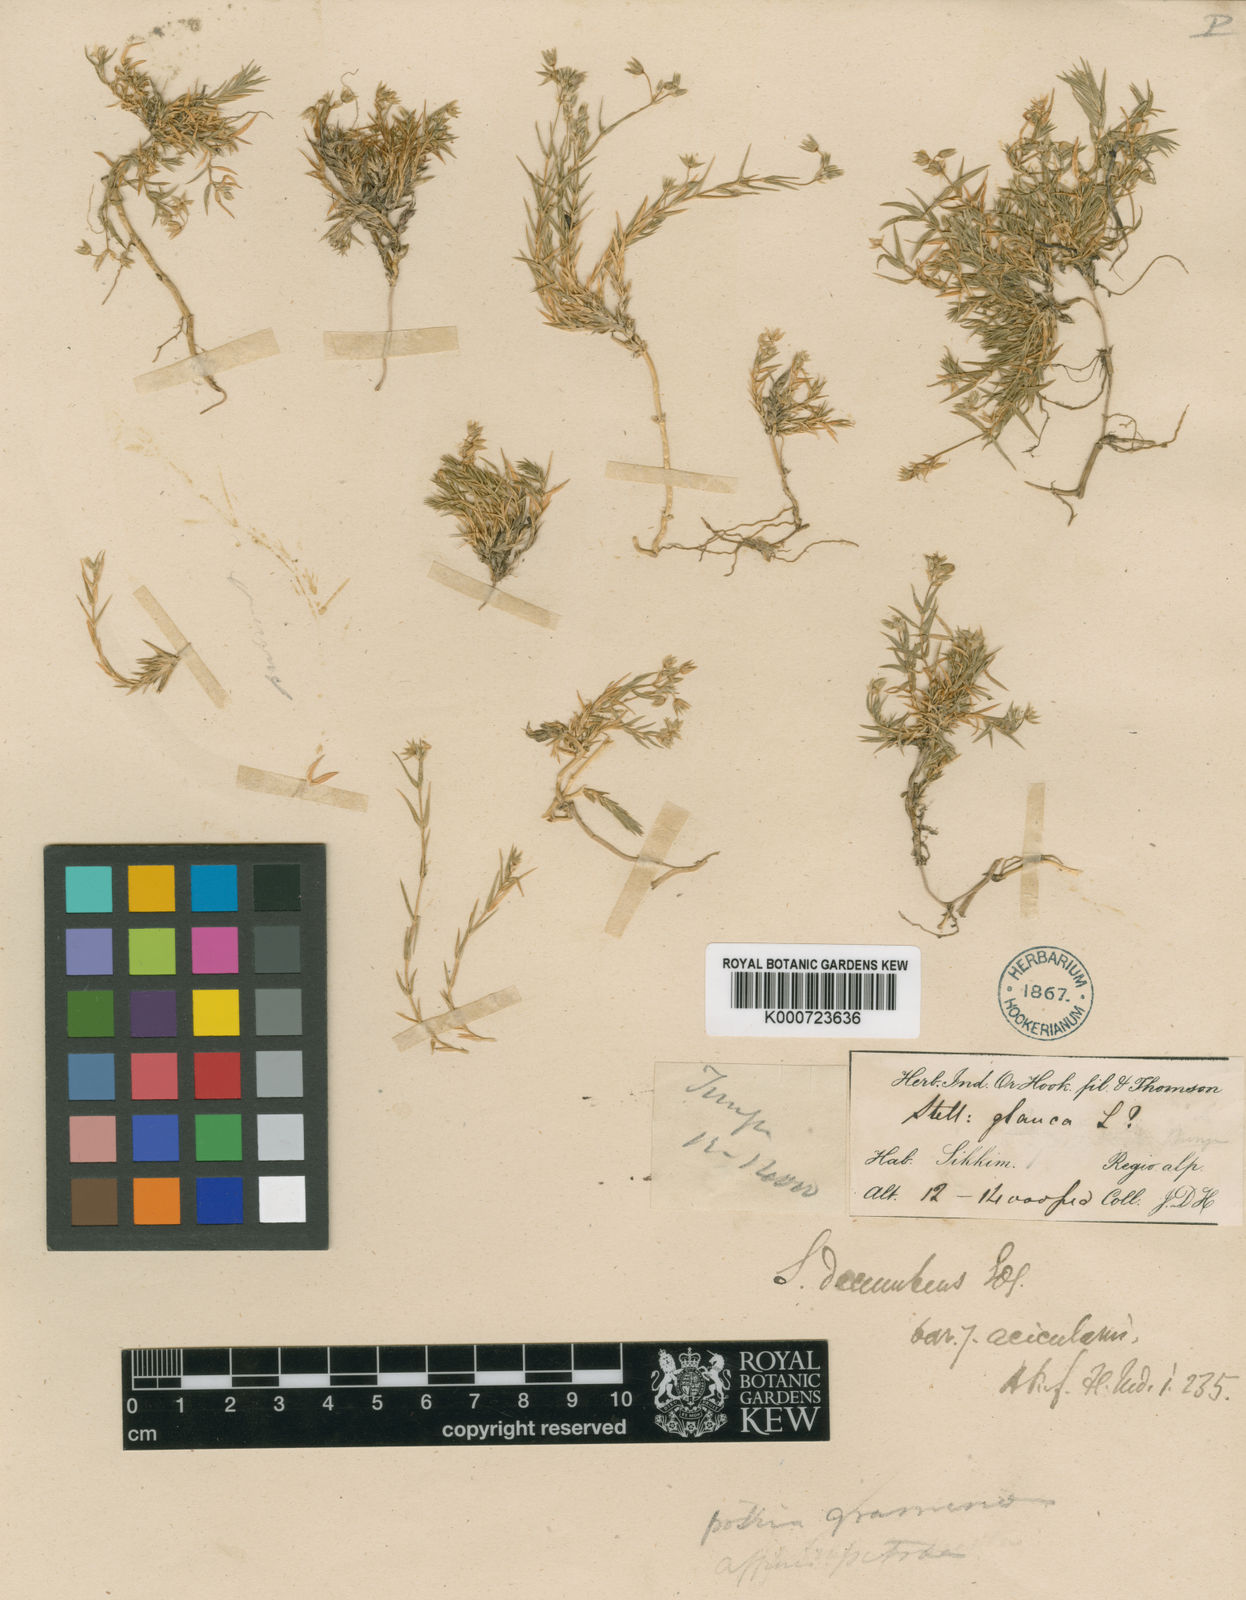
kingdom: Plantae
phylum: Tracheophyta
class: Magnoliopsida
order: Caryophyllales
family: Caryophyllaceae
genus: Stellaria
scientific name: Stellaria decumbens
